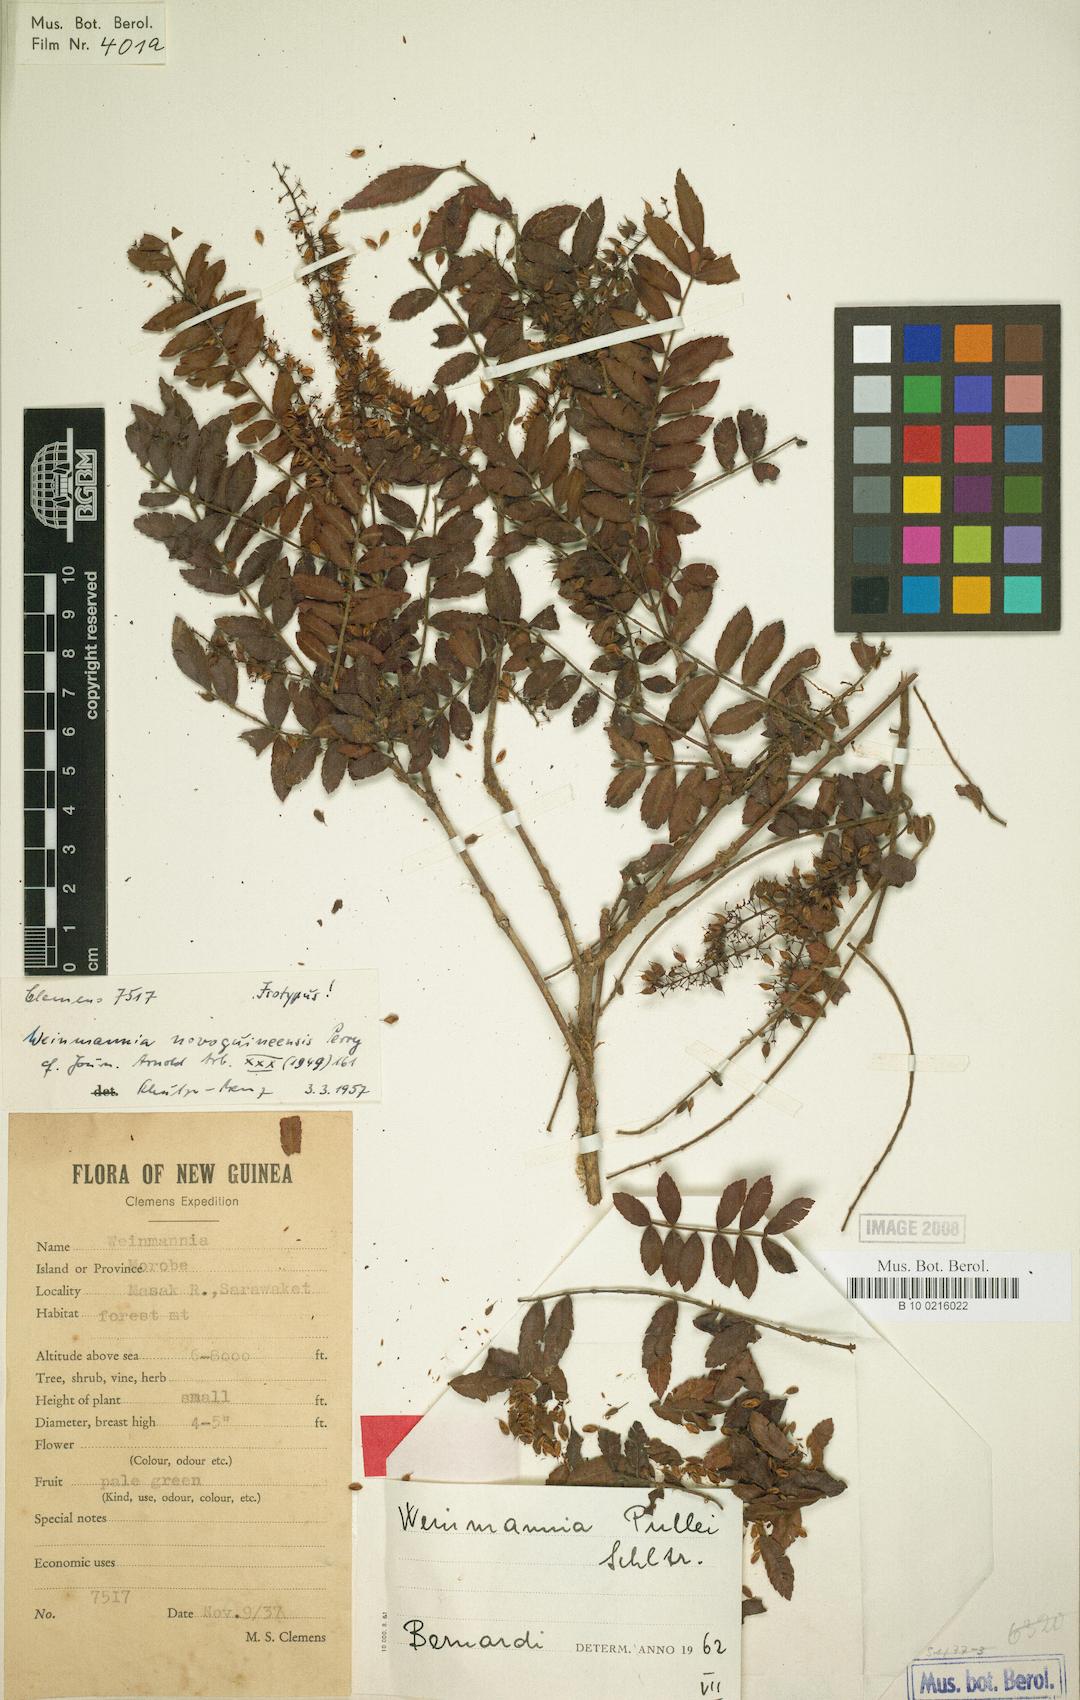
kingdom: Plantae
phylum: Tracheophyta
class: Magnoliopsida
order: Oxalidales
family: Cunoniaceae
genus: Pterophylla
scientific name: Pterophylla pullei
